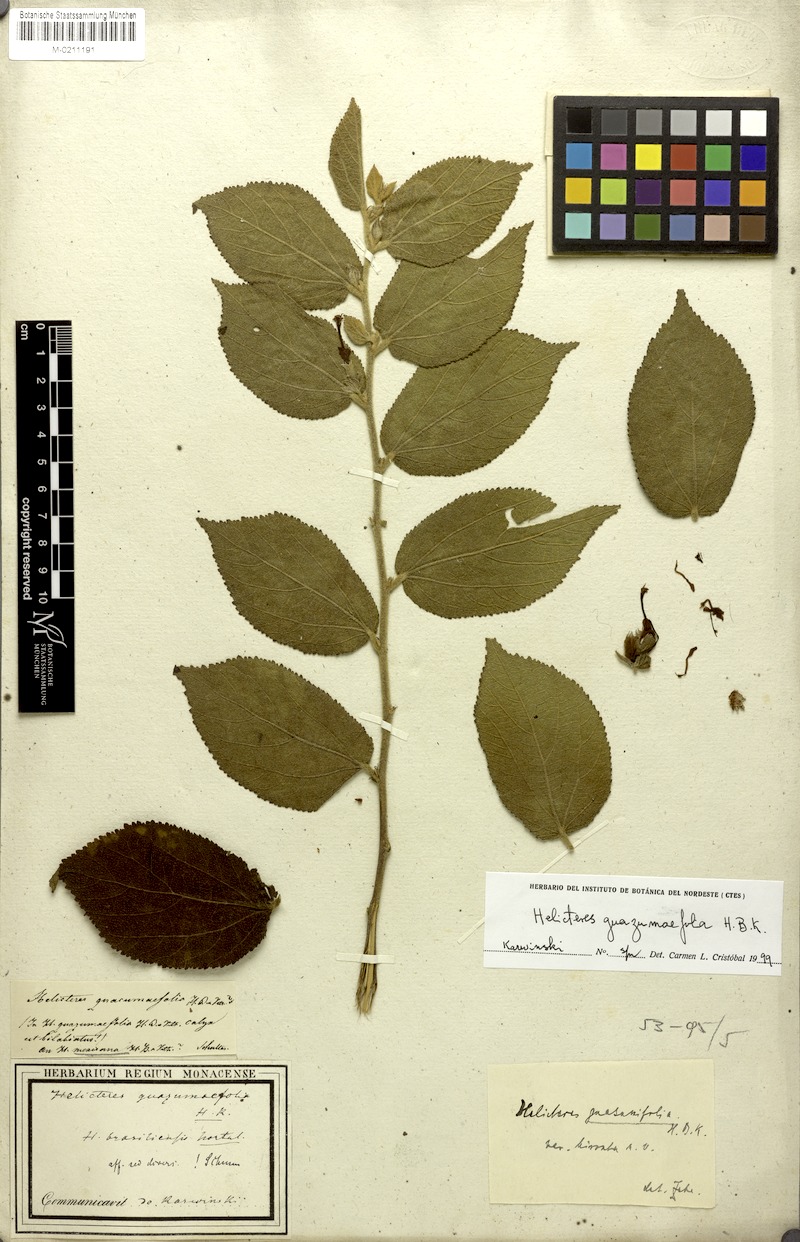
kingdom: Plantae
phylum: Tracheophyta
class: Magnoliopsida
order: Malvales
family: Malvaceae
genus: Helicteres
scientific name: Helicteres guazumifolia
